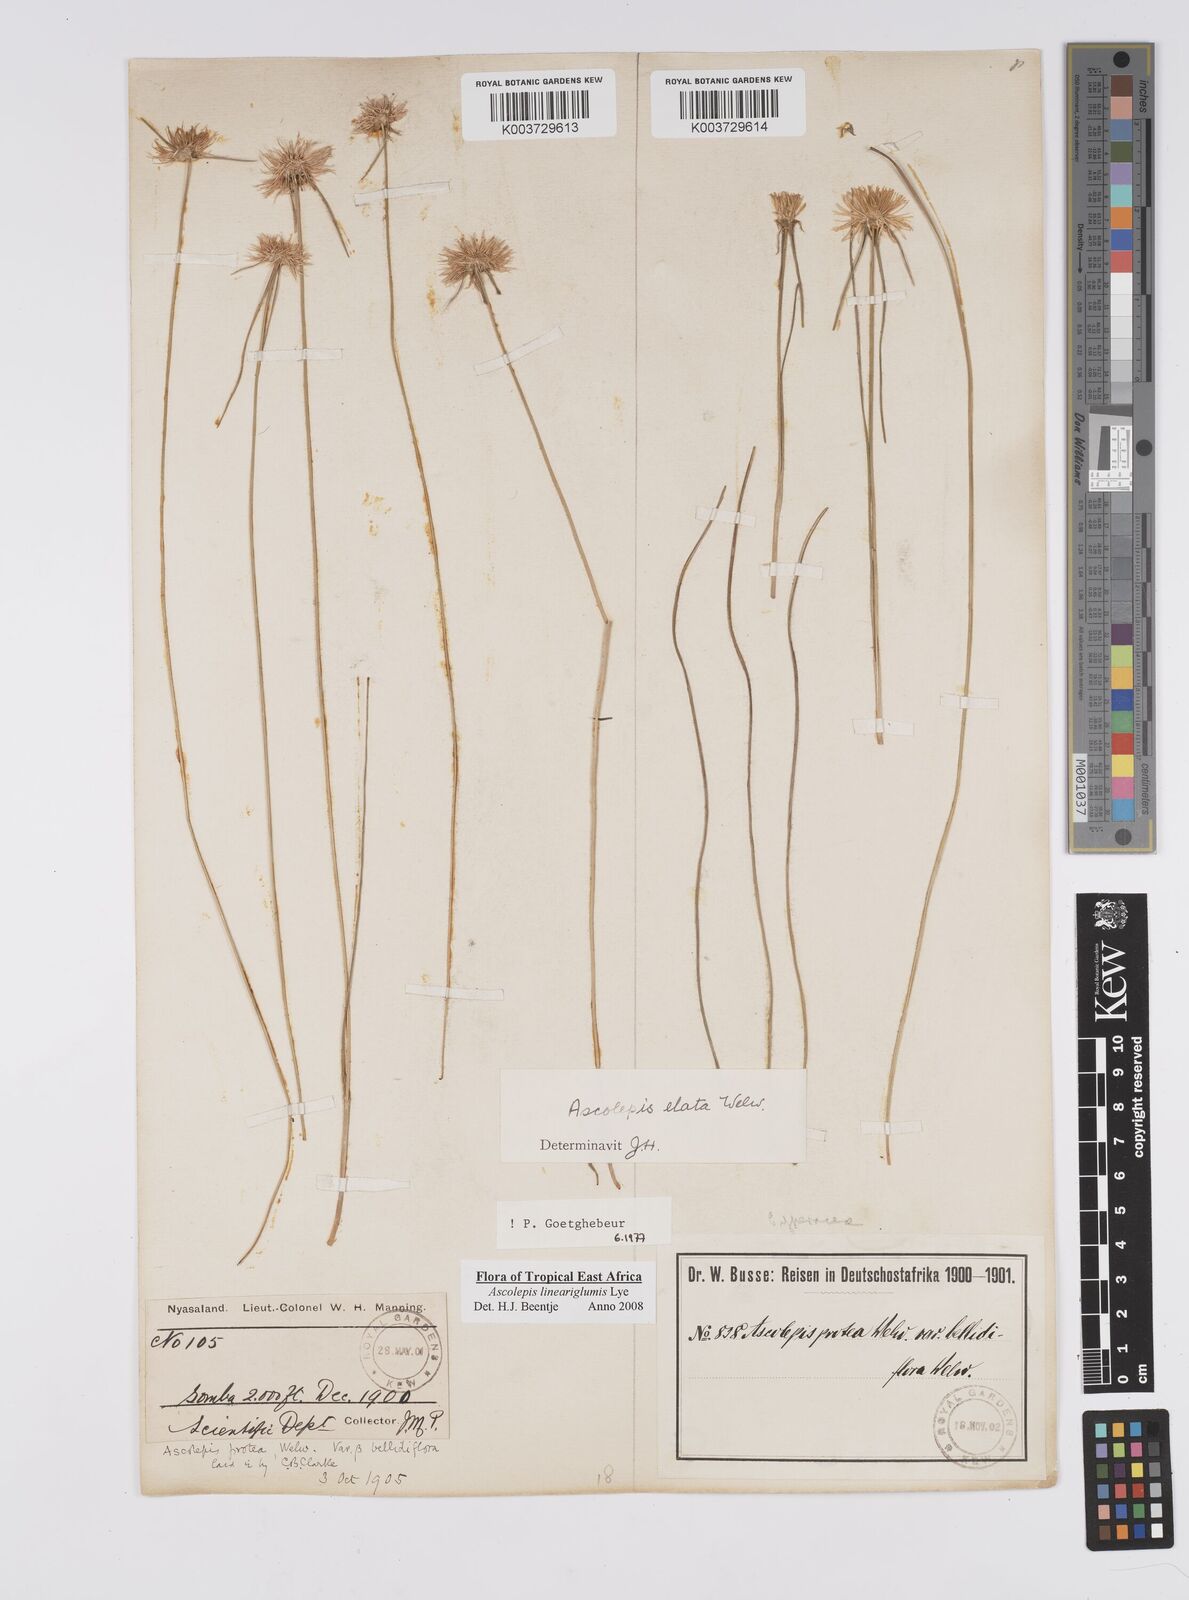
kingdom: Plantae
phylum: Tracheophyta
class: Liliopsida
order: Poales
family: Cyperaceae
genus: Cyperus
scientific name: Cyperus
